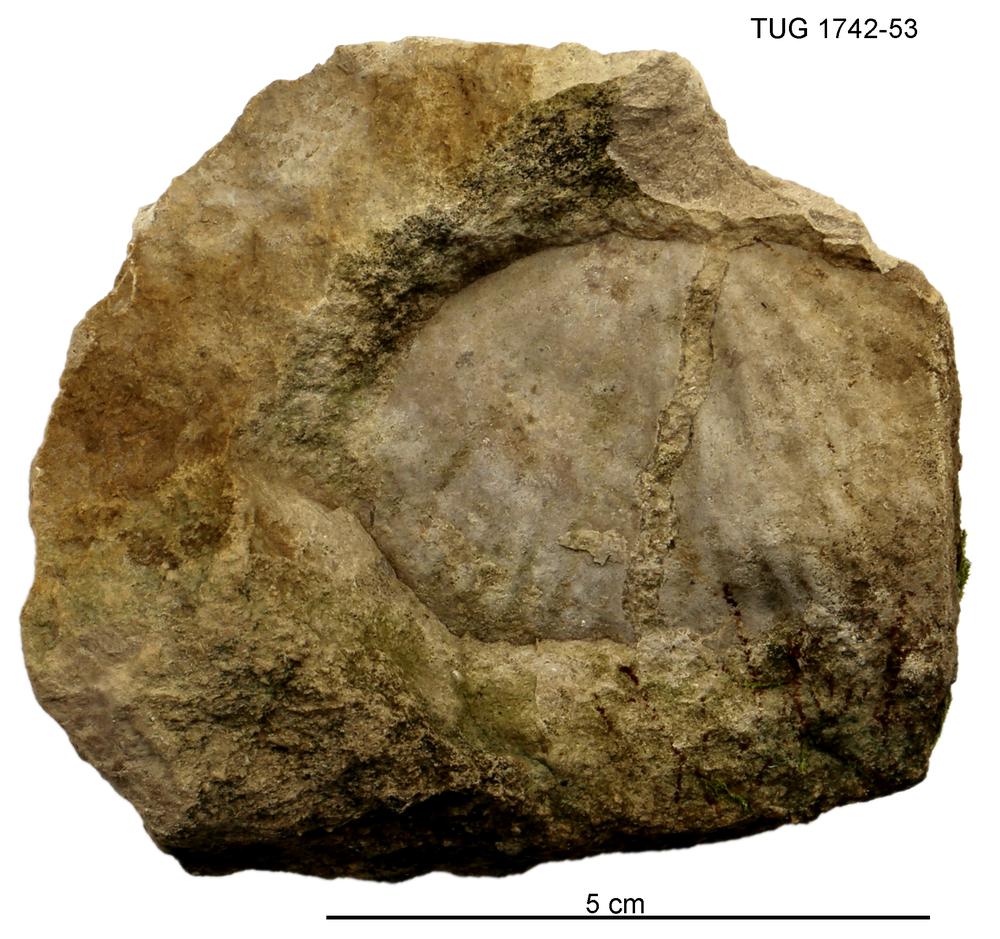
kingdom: Animalia
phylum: Brachiopoda
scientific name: Brachiopoda
